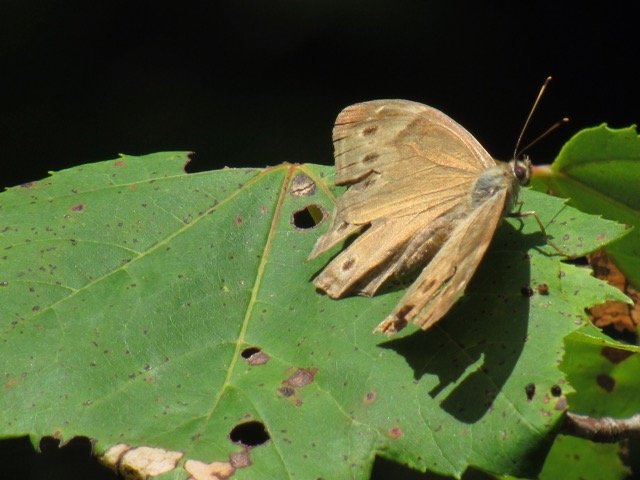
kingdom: Animalia
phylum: Arthropoda
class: Insecta
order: Lepidoptera
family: Nymphalidae
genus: Lethe
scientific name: Lethe anthedon
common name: Northern Pearly-Eye
